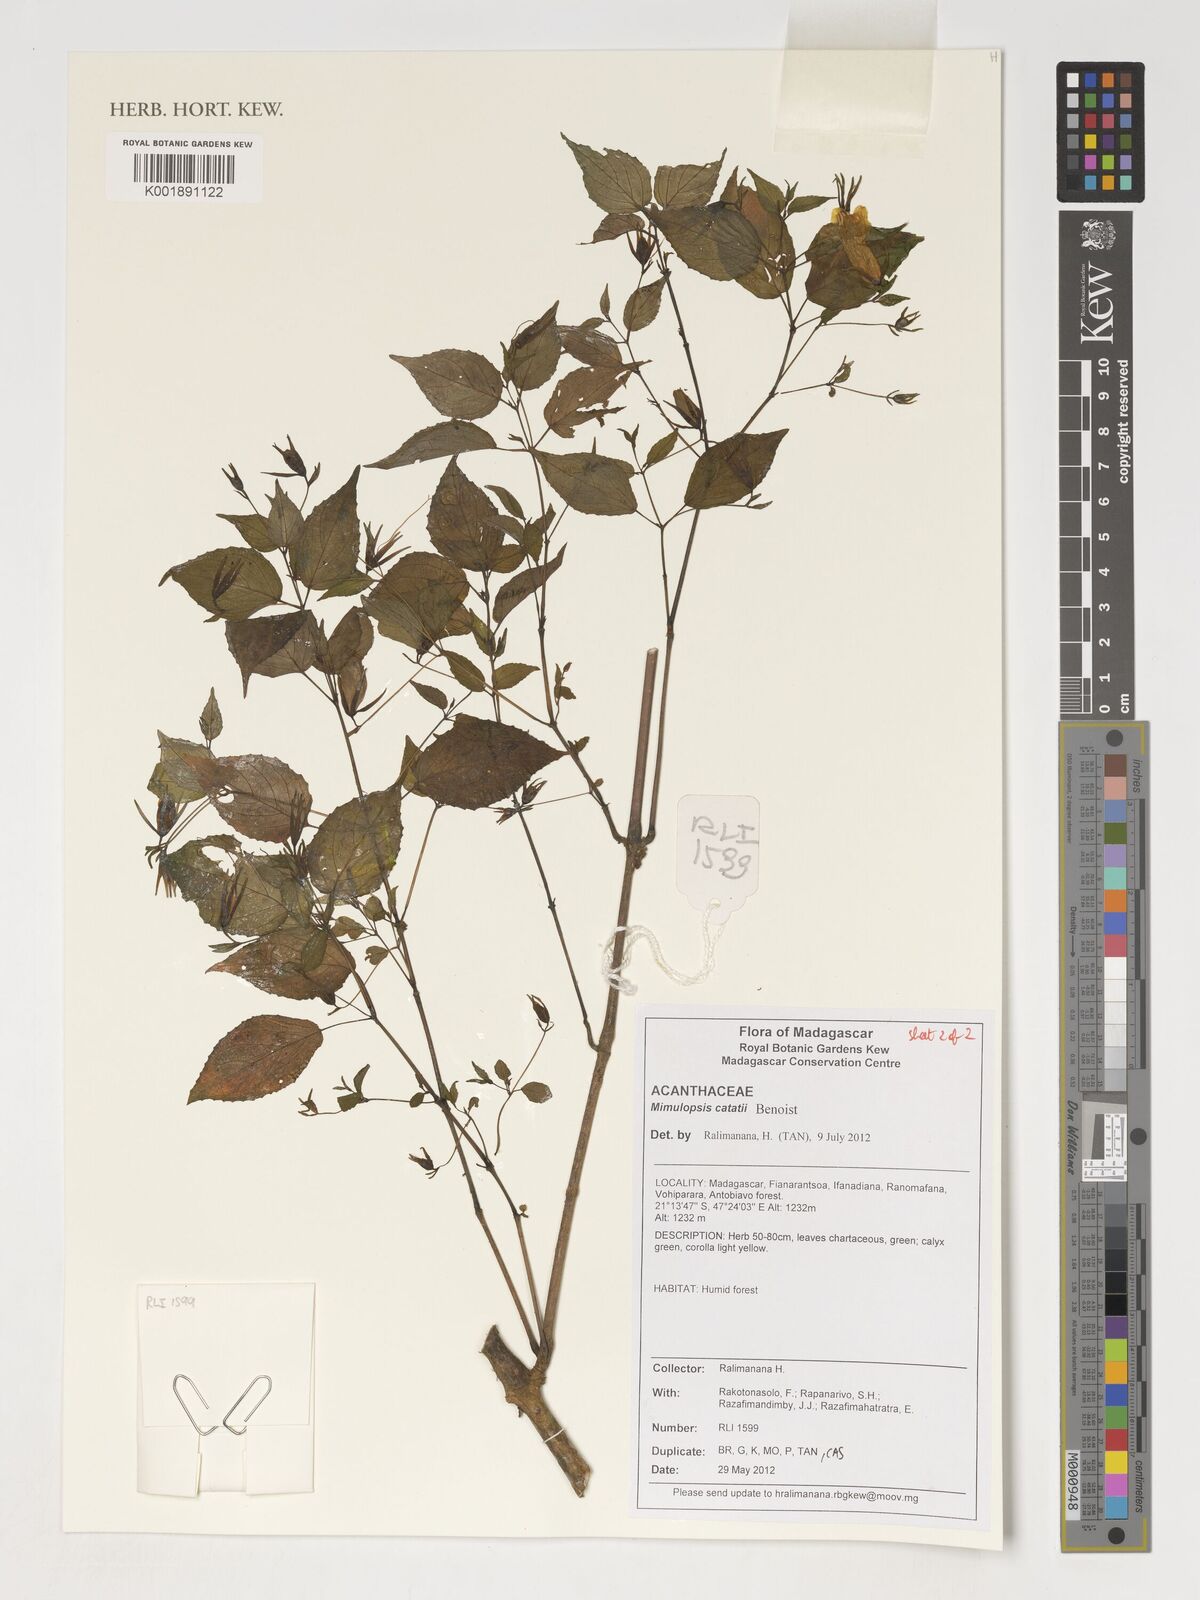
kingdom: Plantae
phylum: Tracheophyta
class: Magnoliopsida
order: Lamiales
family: Acanthaceae
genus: Mimulopsis
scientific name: Mimulopsis catati
